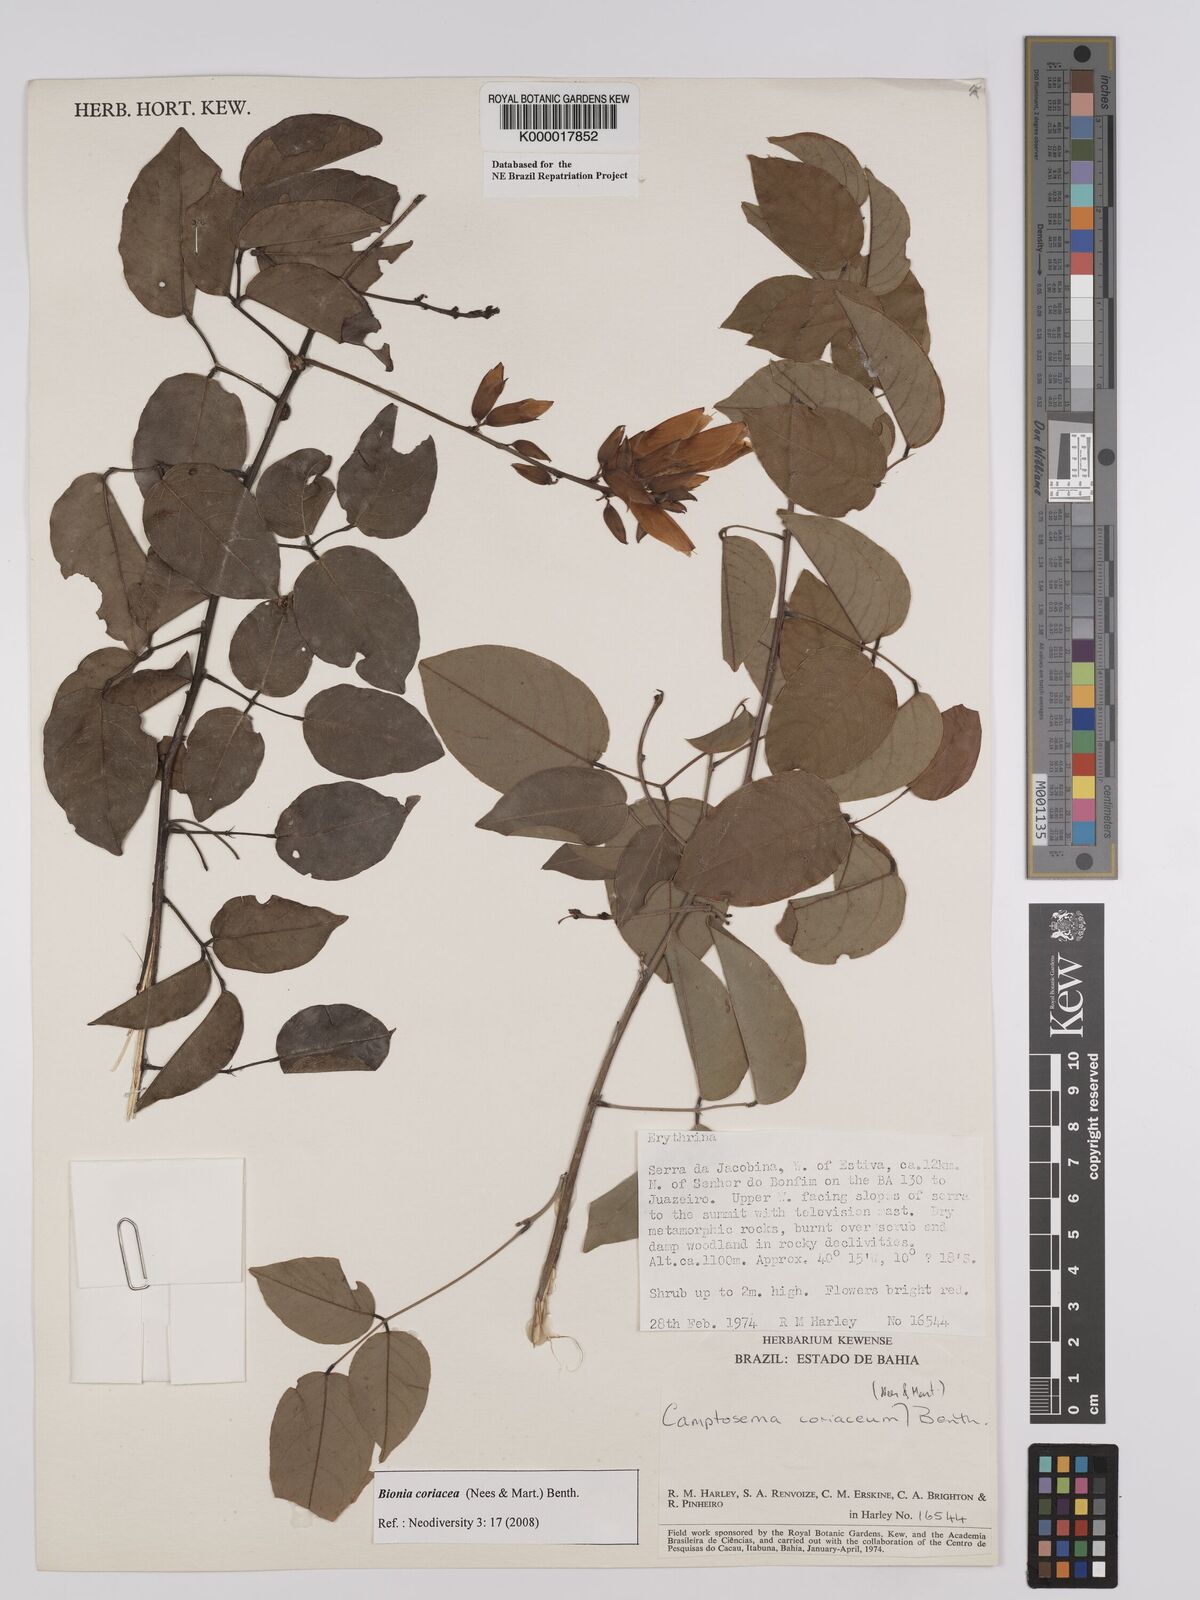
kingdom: Plantae
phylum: Tracheophyta
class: Magnoliopsida
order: Fabales
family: Fabaceae
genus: Camptosema
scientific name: Camptosema coriaceum
